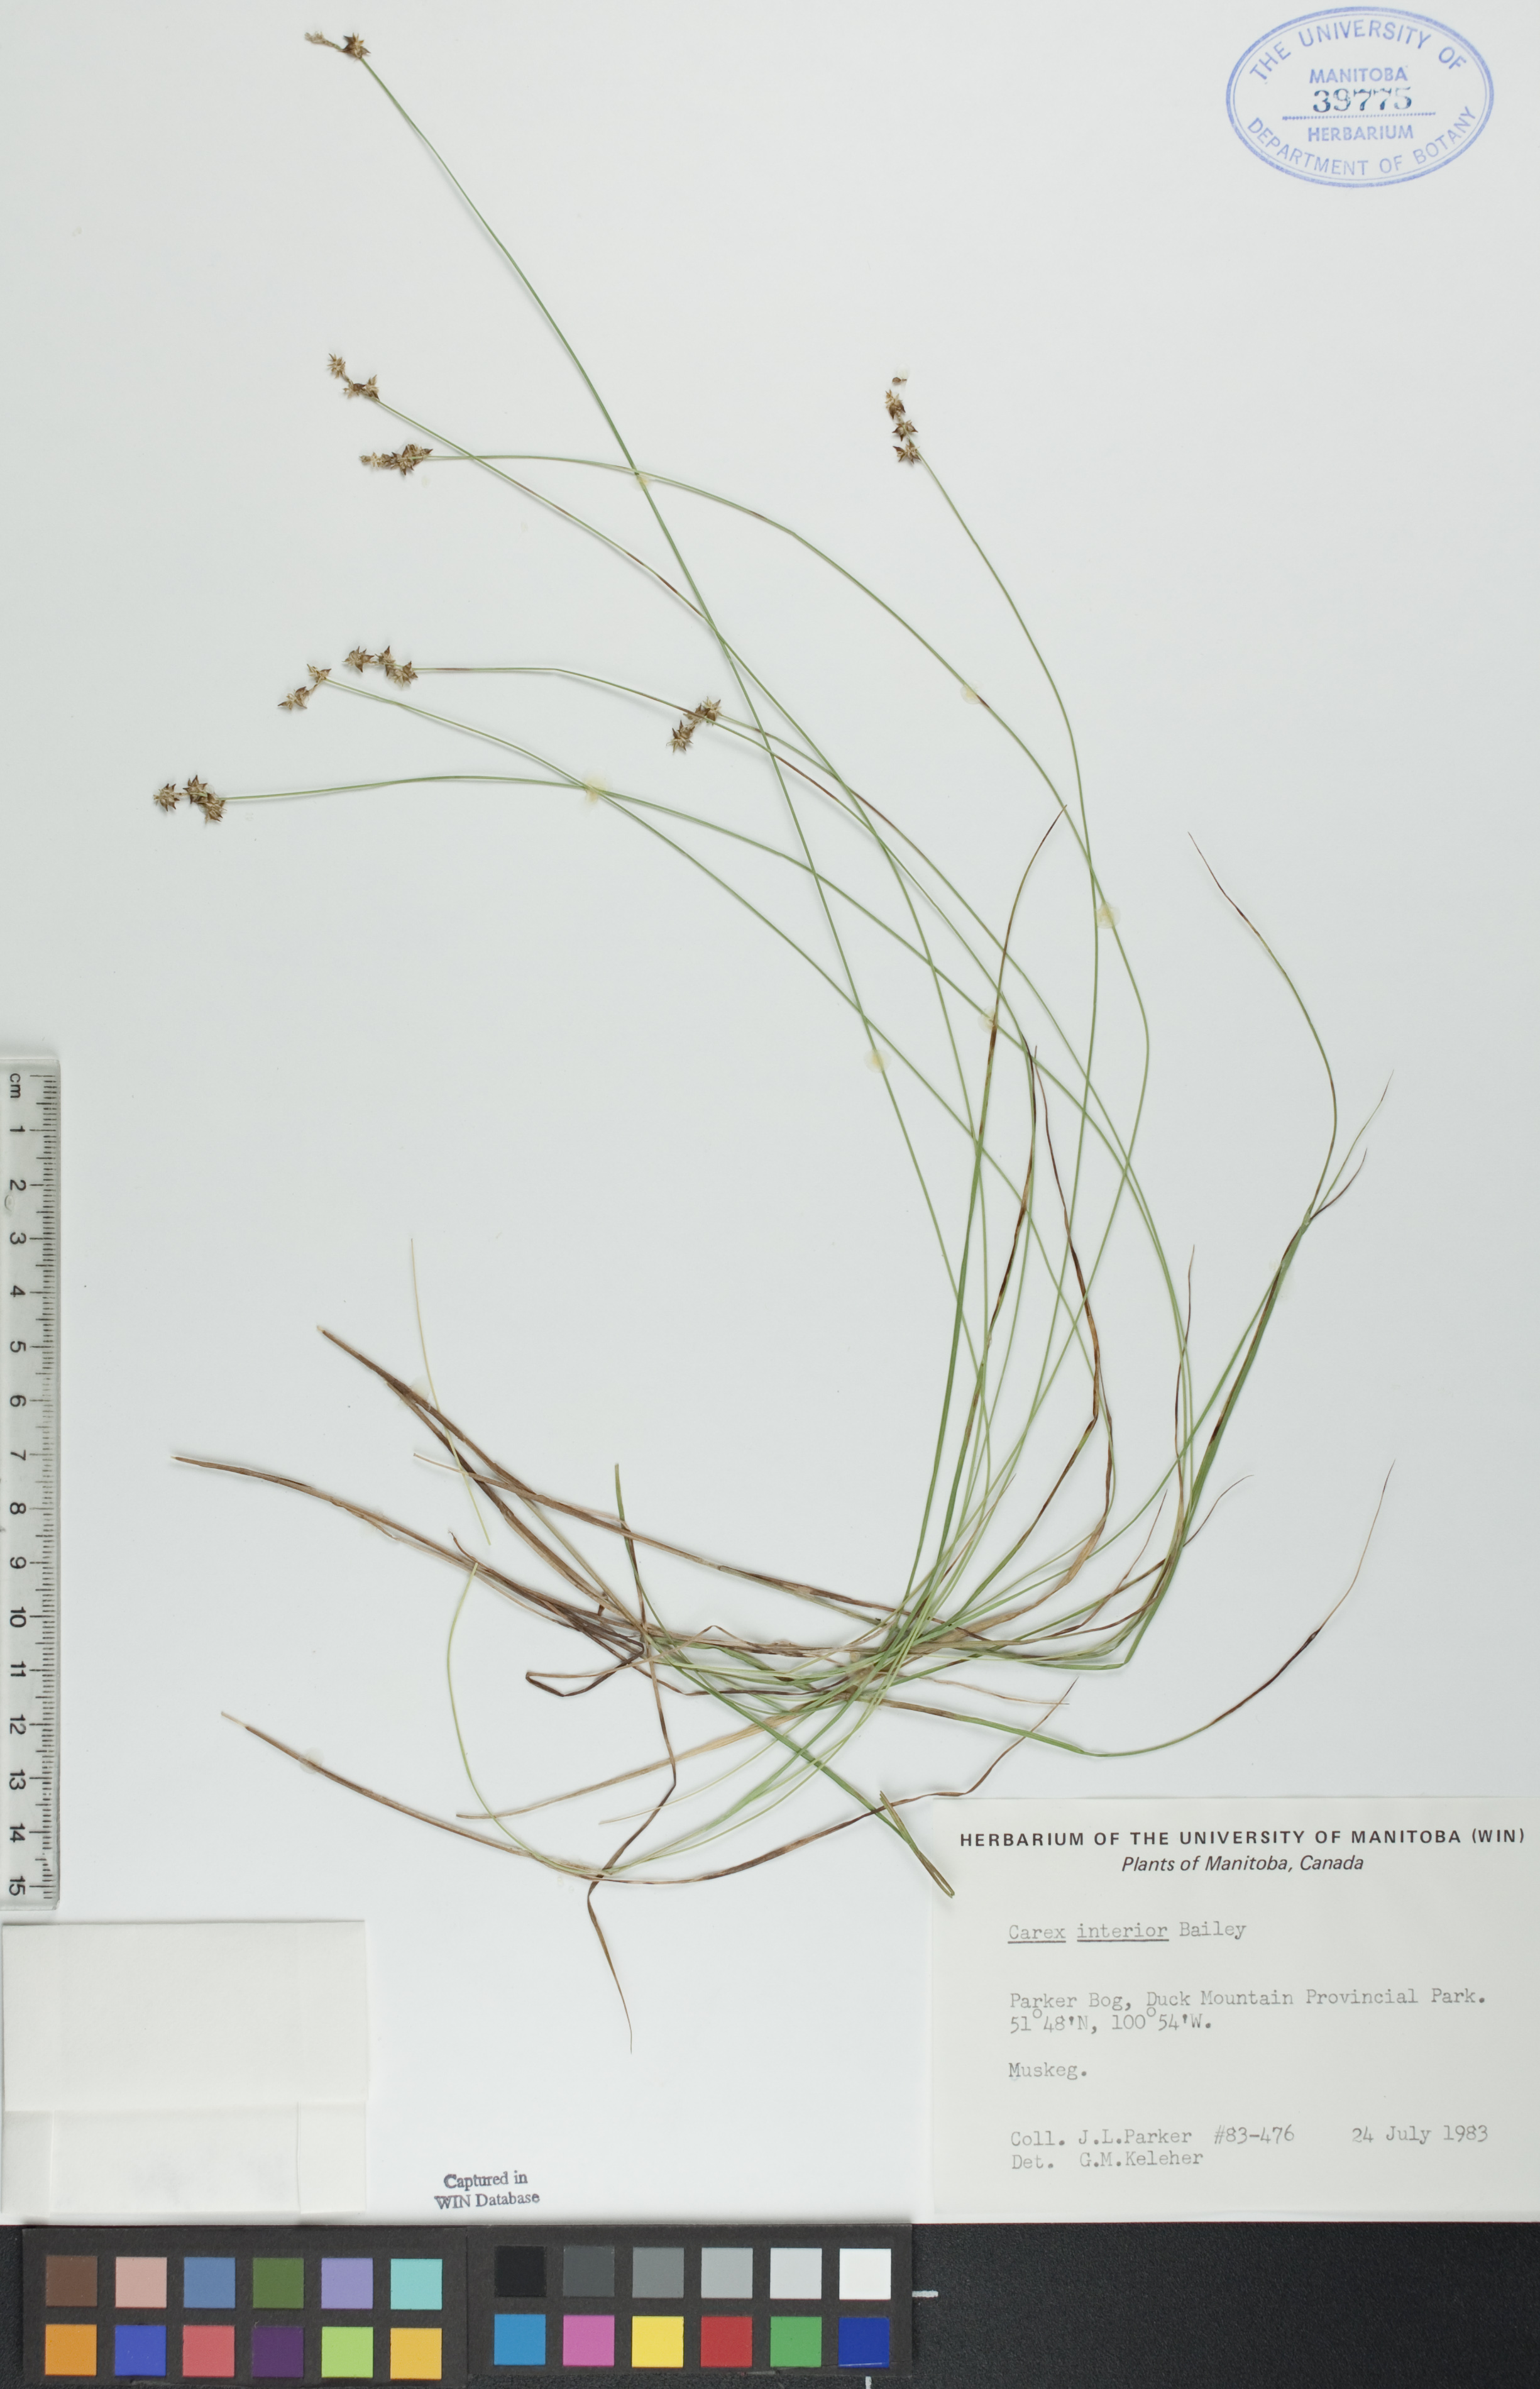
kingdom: Plantae
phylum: Tracheophyta
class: Liliopsida
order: Poales
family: Cyperaceae
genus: Carex
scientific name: Carex interior
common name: Inland sedge
